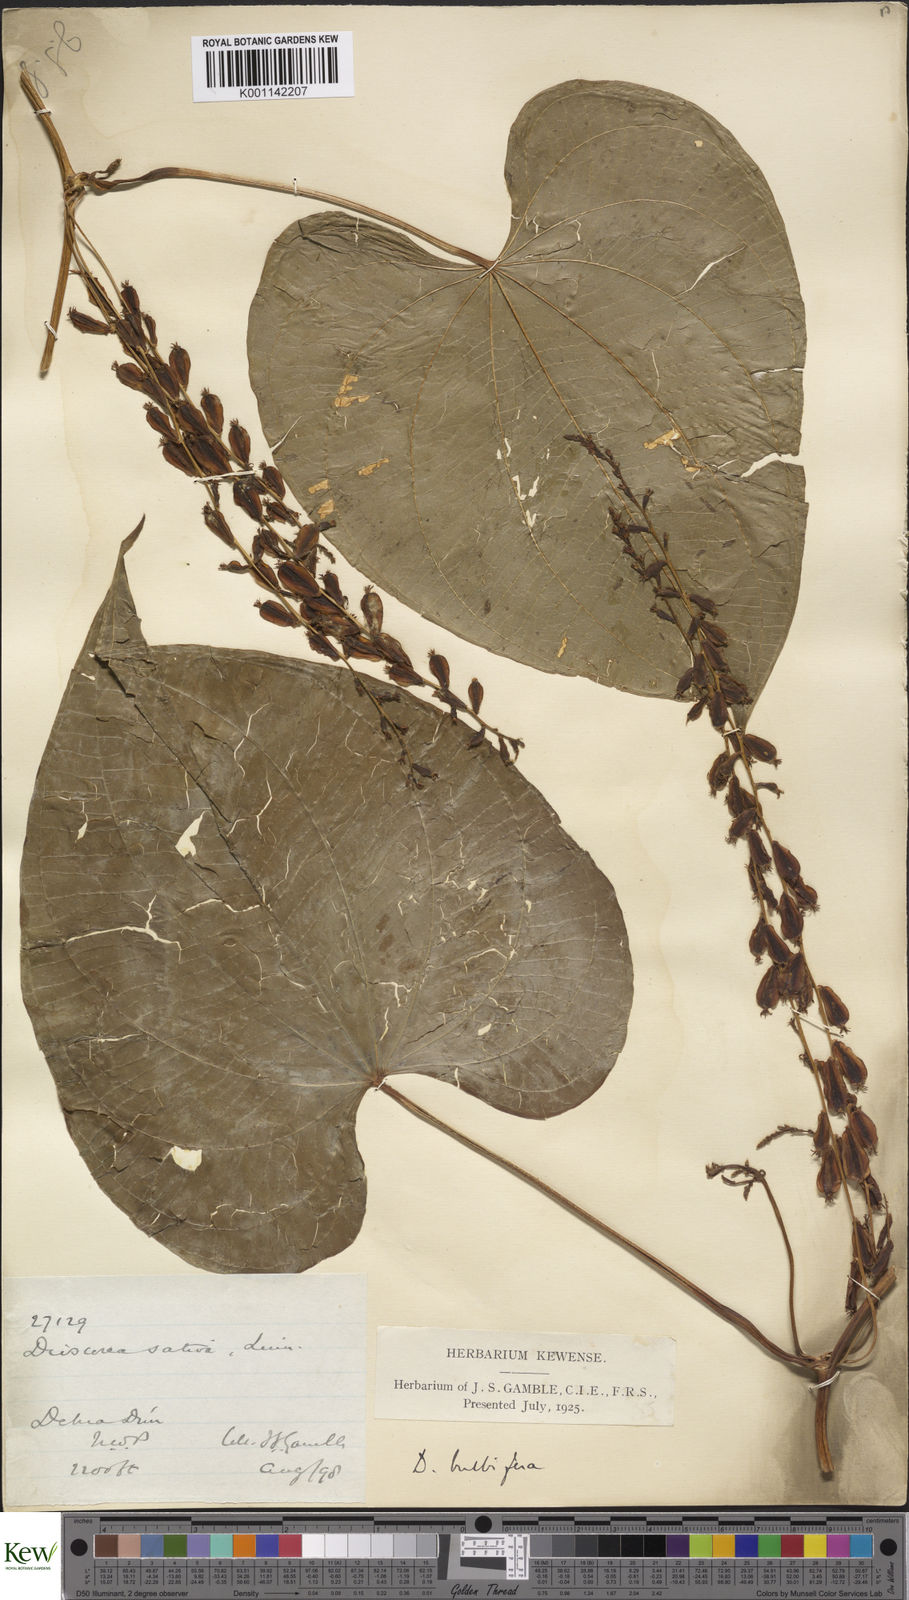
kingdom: Plantae
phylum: Tracheophyta
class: Liliopsida
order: Dioscoreales
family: Dioscoreaceae
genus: Dioscorea
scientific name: Dioscorea bulbifera
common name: Air yam
